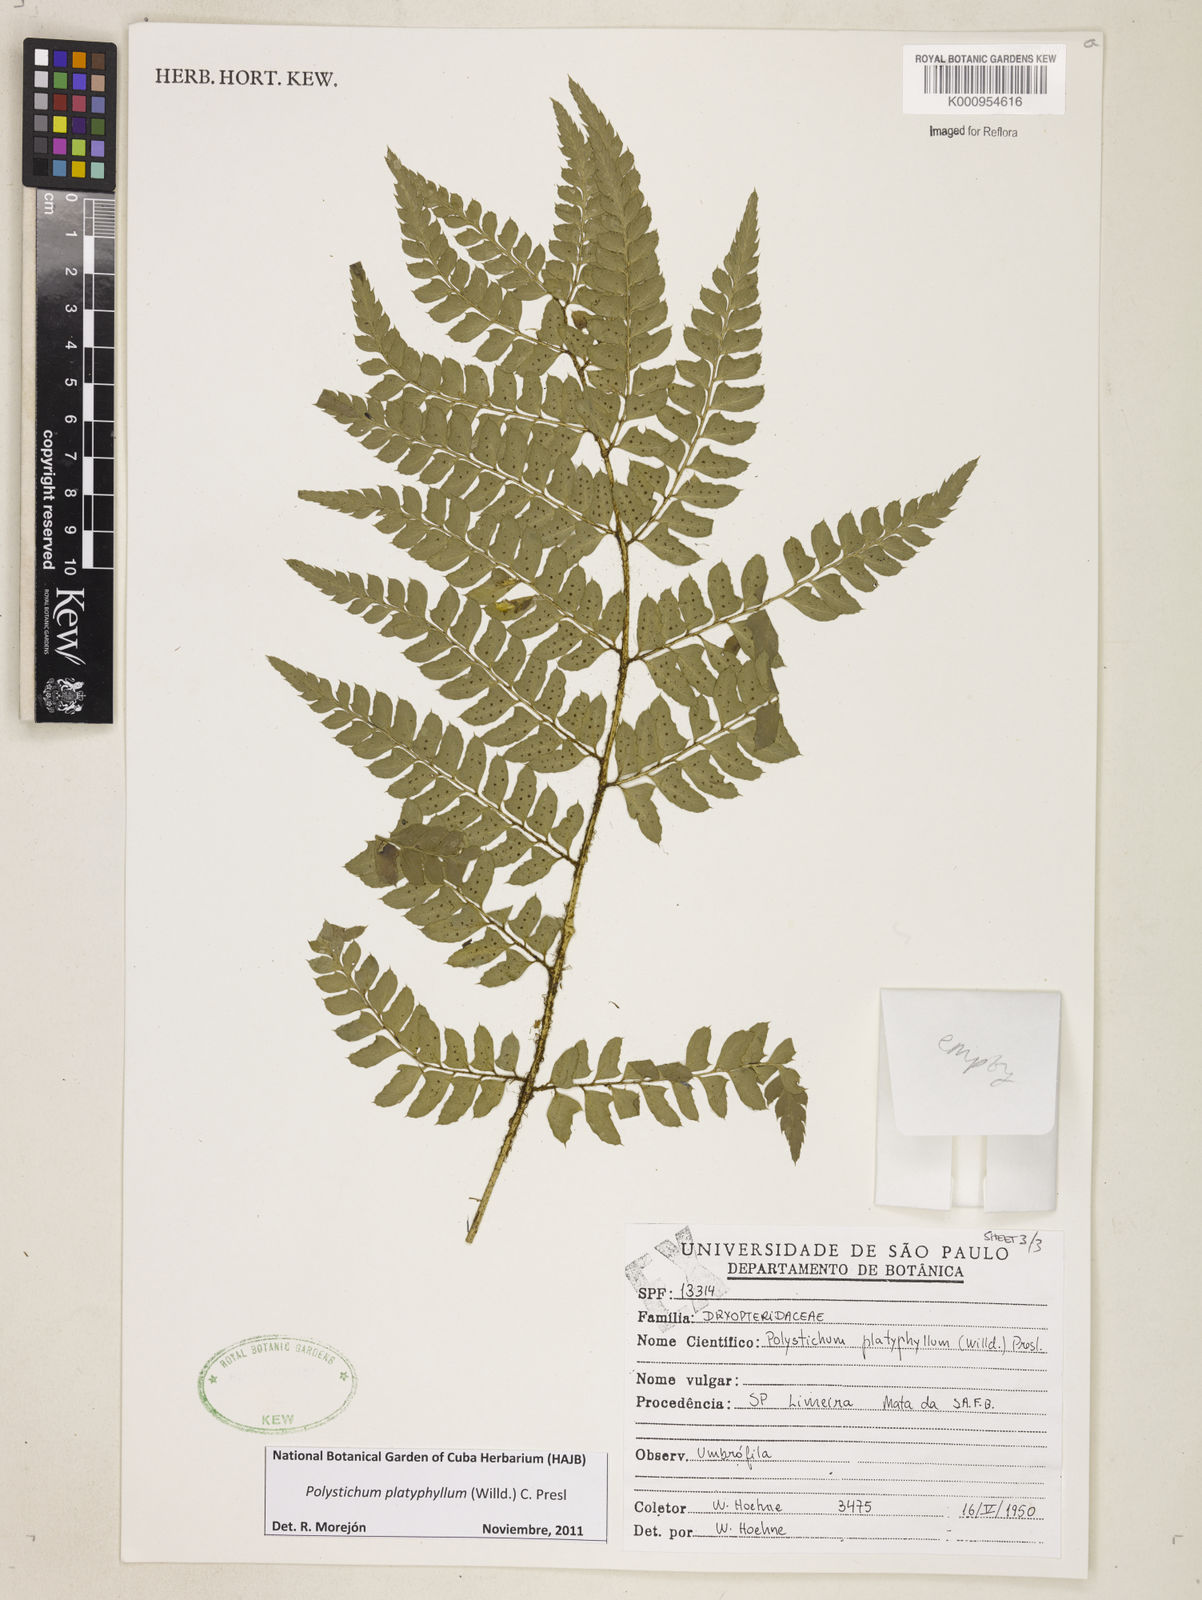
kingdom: Plantae
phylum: Tracheophyta
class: Polypodiopsida
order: Polypodiales
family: Dryopteridaceae
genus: Polystichum
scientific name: Polystichum platyphyllum
